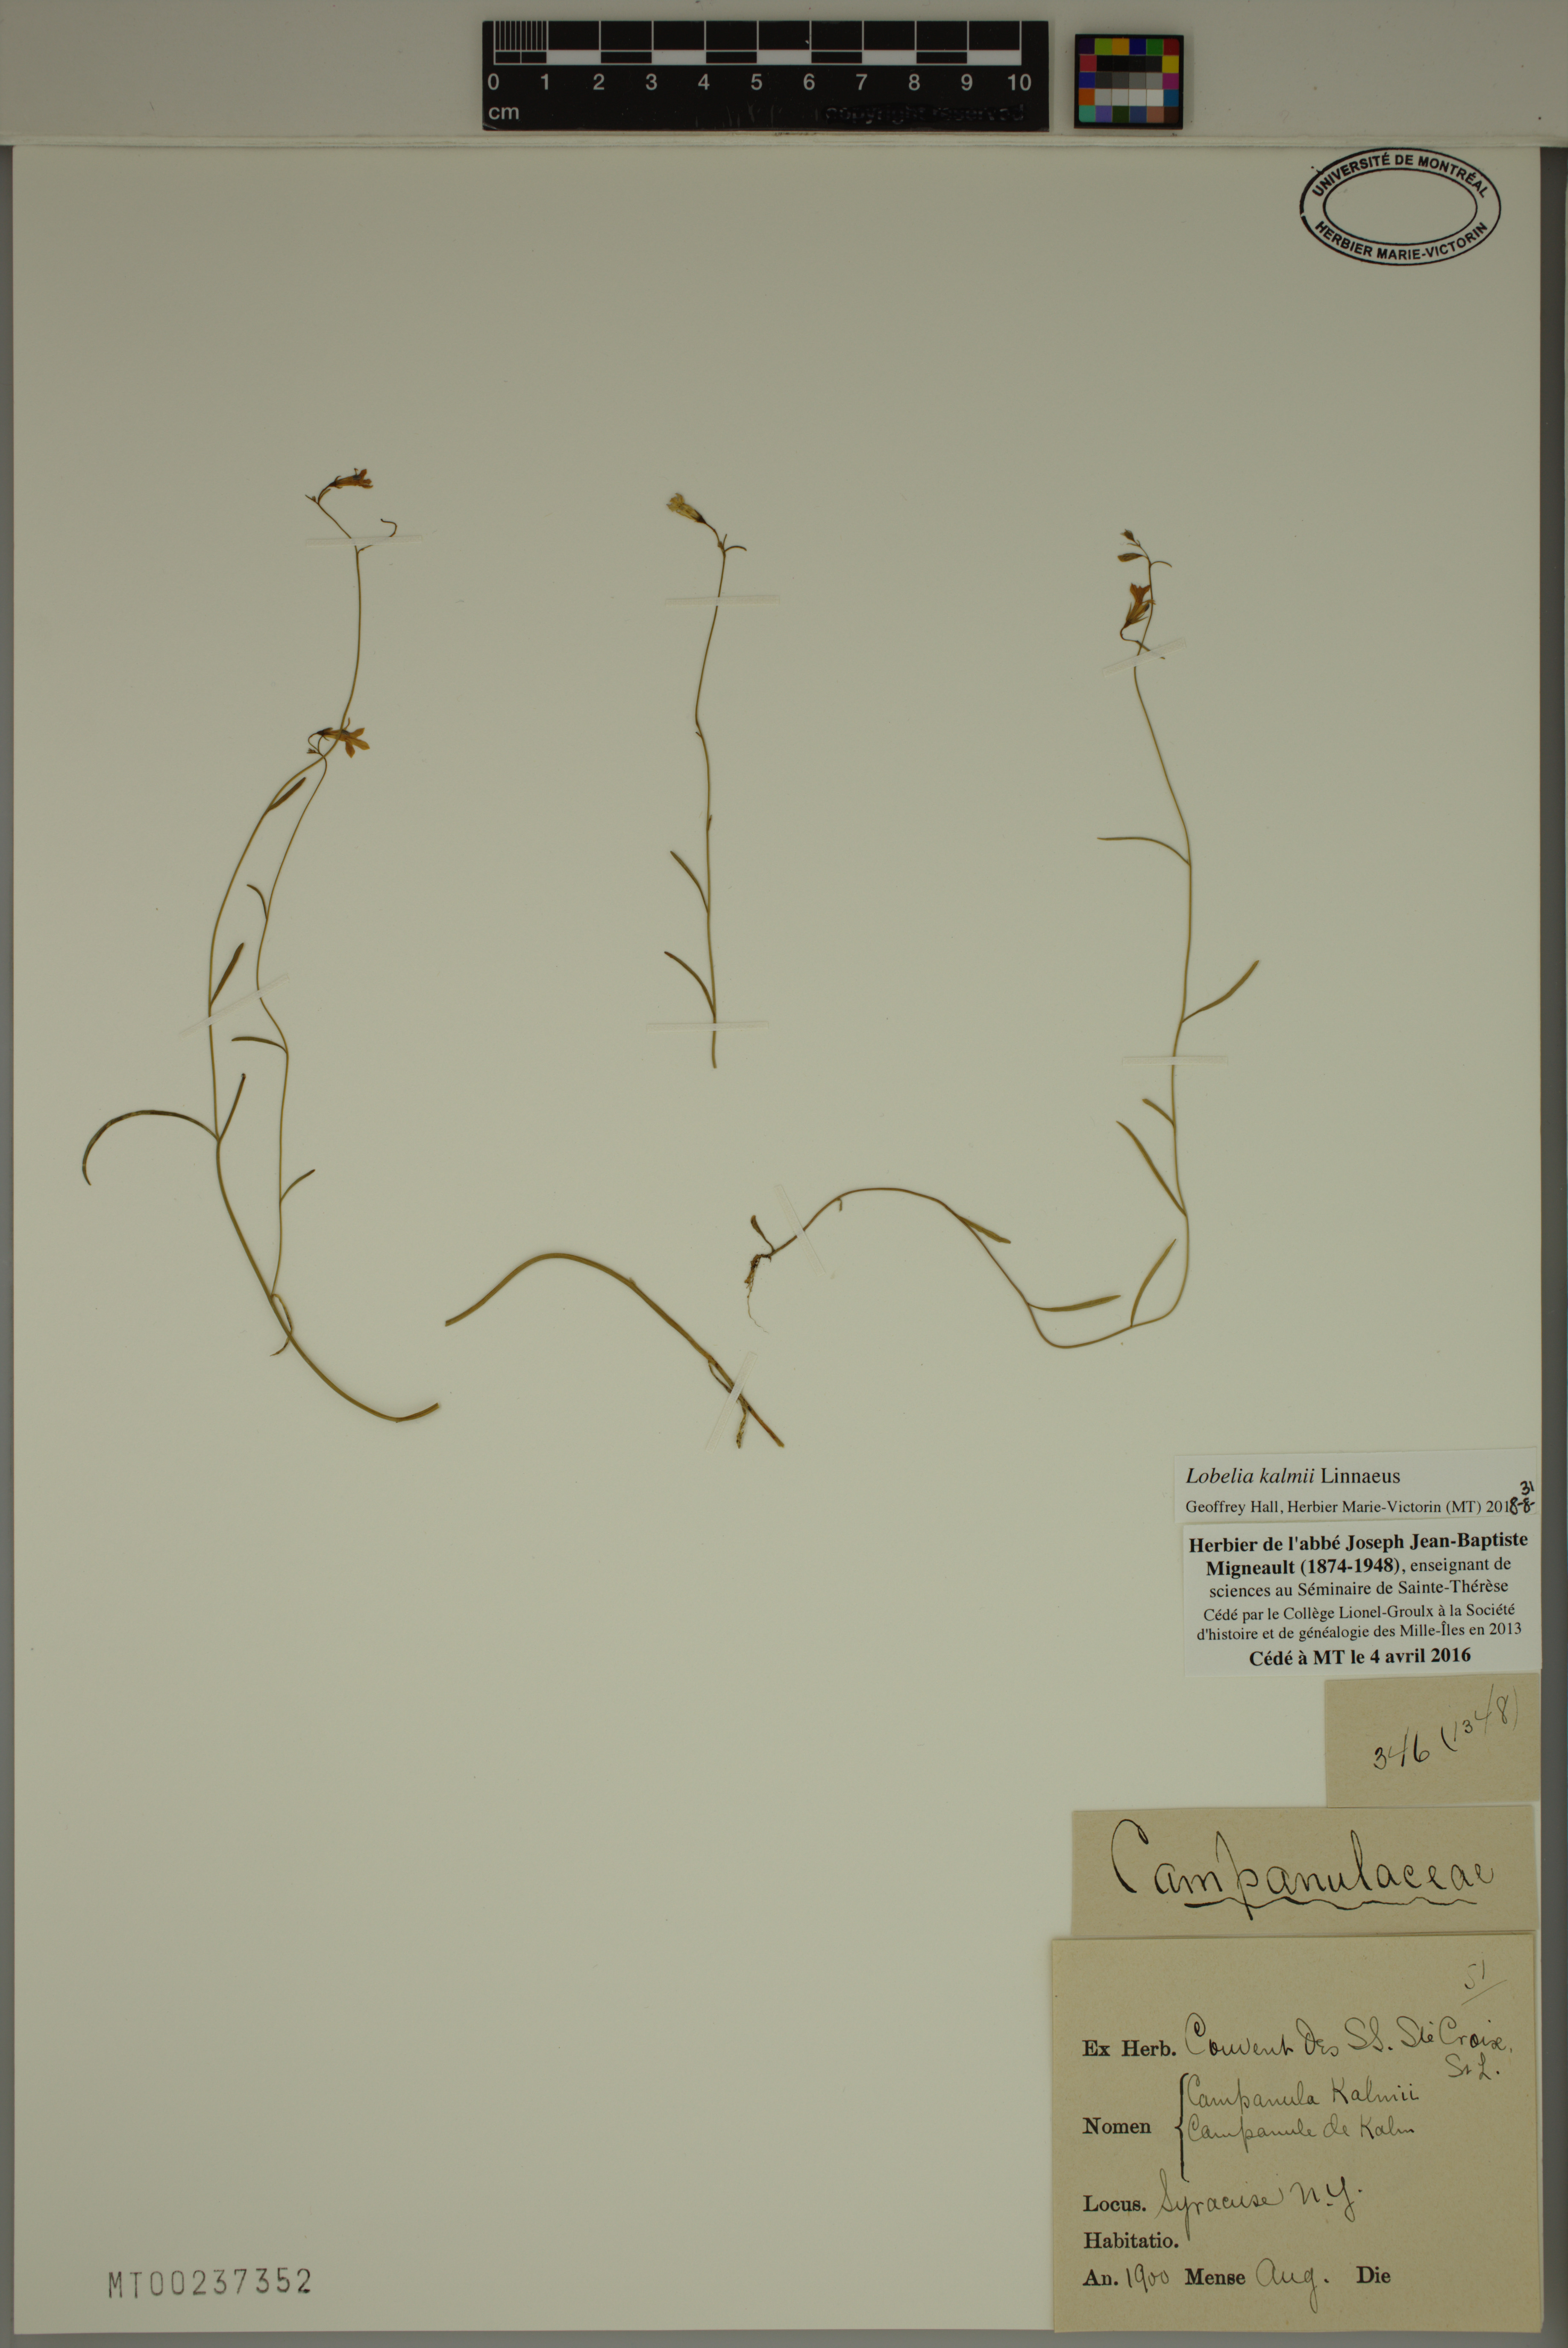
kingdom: Plantae
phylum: Tracheophyta
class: Magnoliopsida
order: Asterales
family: Campanulaceae
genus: Lobelia
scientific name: Lobelia kalmii
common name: Kalm's lobelia
